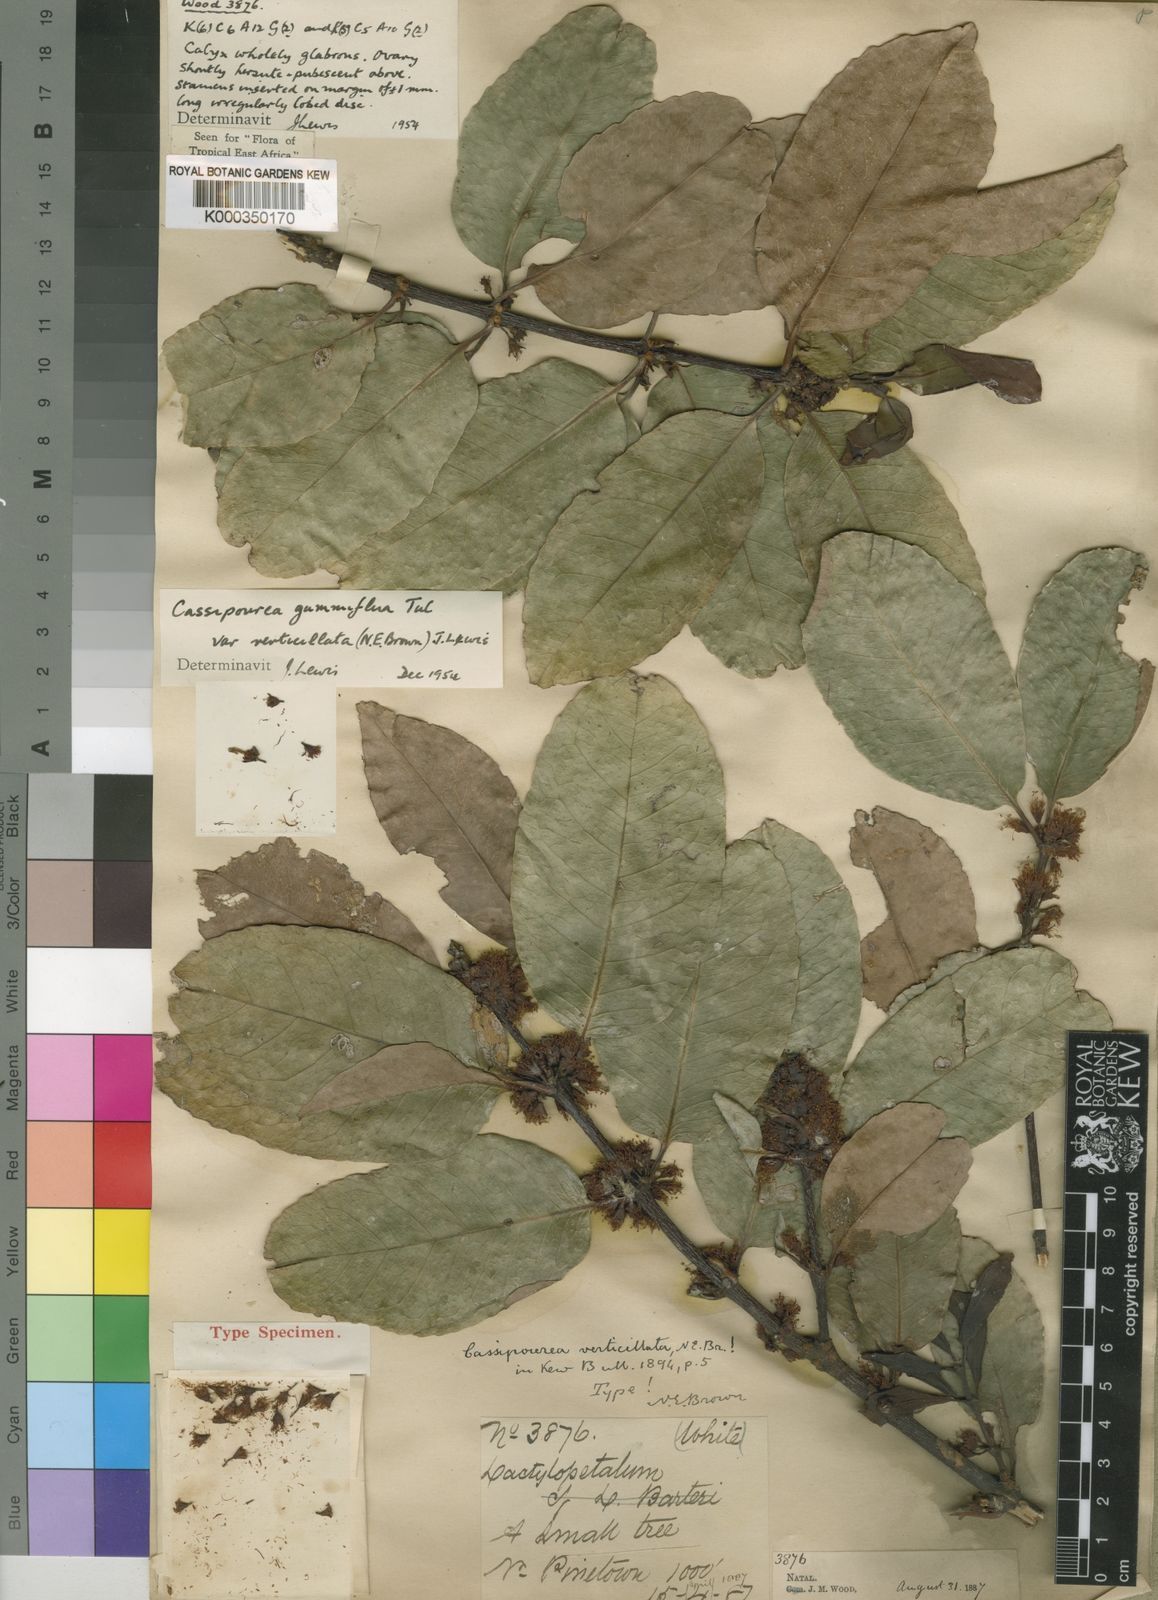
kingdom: Plantae
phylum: Tracheophyta
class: Magnoliopsida
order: Malpighiales
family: Rhizophoraceae
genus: Cassipourea
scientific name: Cassipourea gummiflua
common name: Large-leaved onionwood
